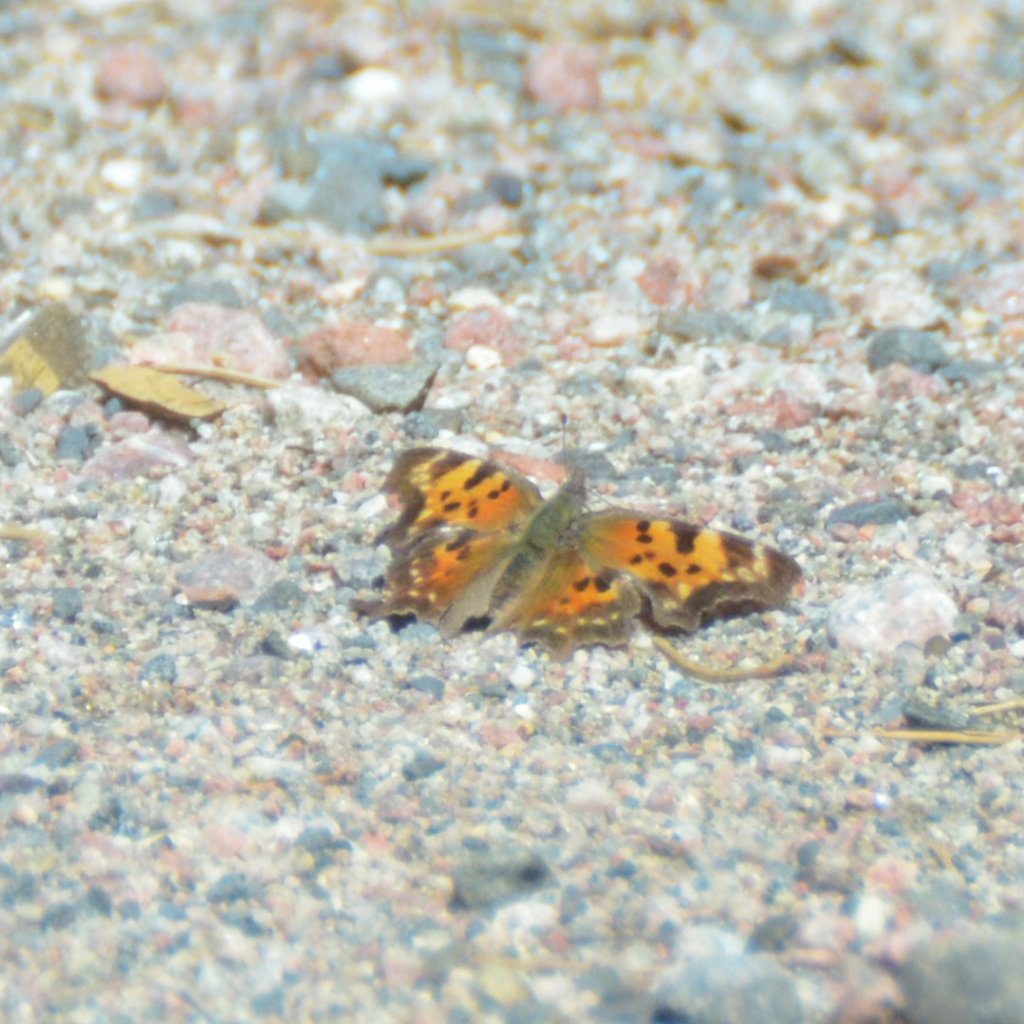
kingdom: Animalia
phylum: Arthropoda
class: Insecta
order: Lepidoptera
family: Nymphalidae
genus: Polygonia
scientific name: Polygonia faunus
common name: Green Comma
